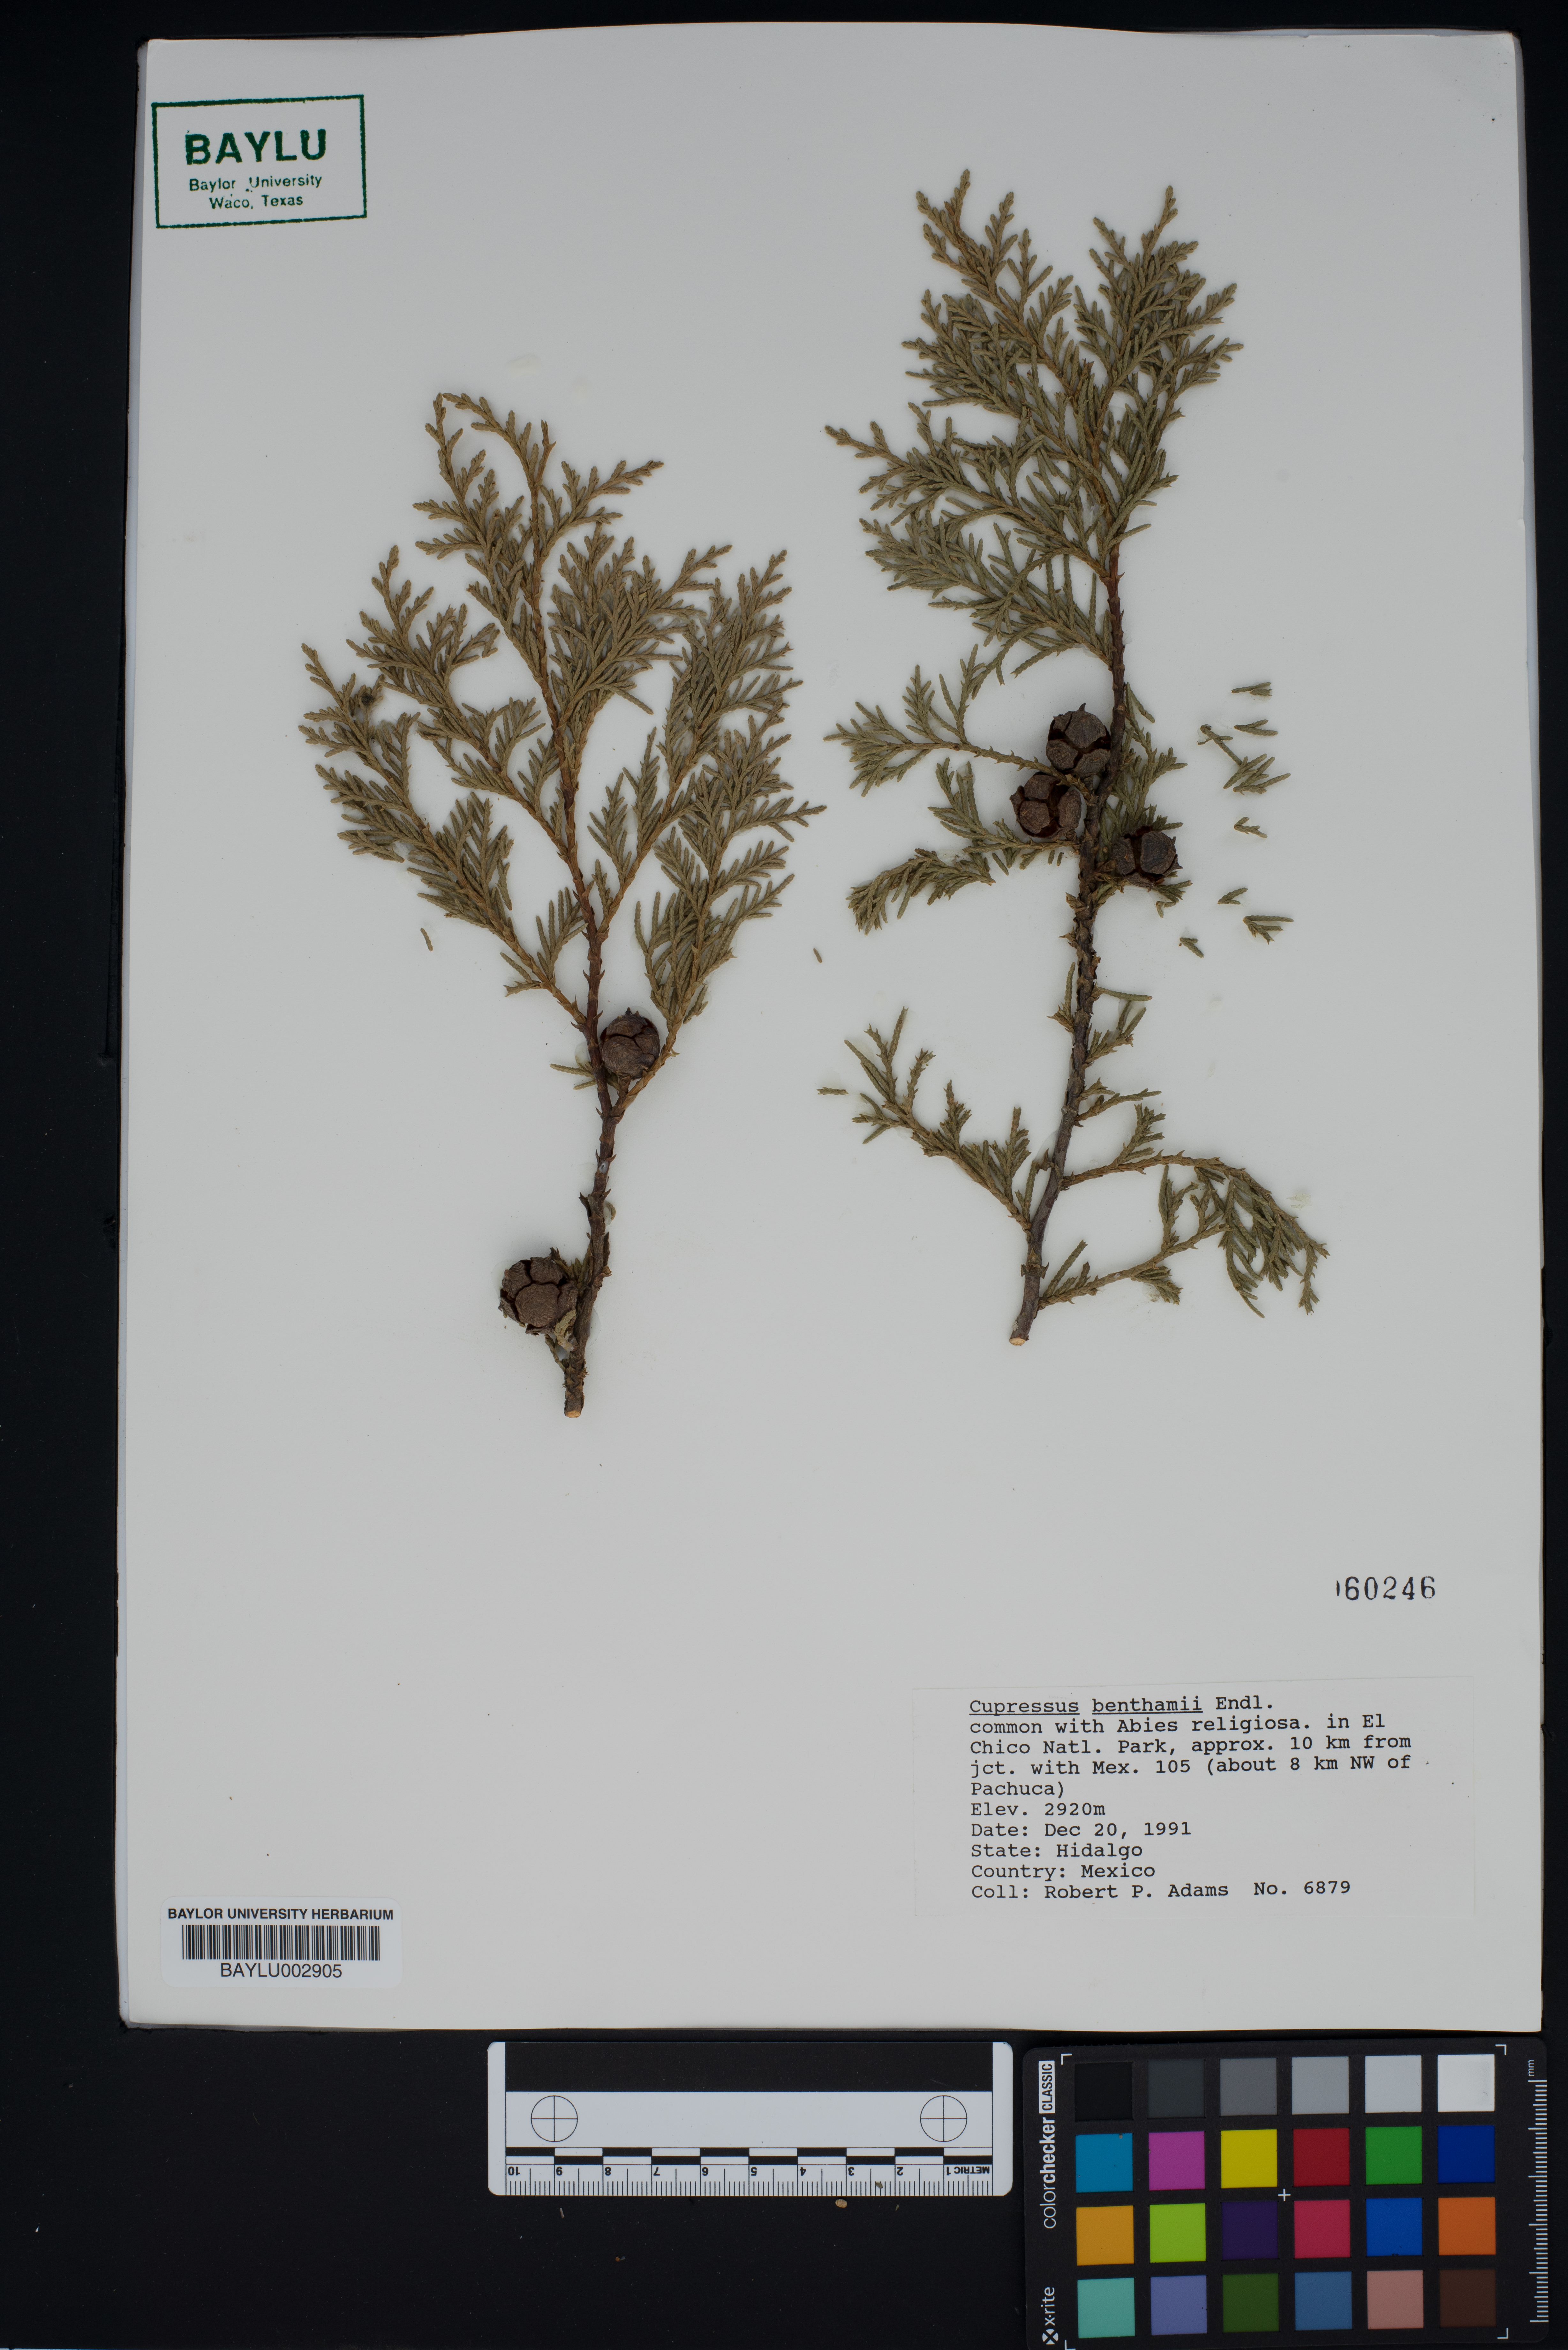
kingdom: Plantae
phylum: Tracheophyta
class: Pinopsida
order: Pinales
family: Cupressaceae
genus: Cupressus
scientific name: Cupressus lusitanica
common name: Mexican cypress
